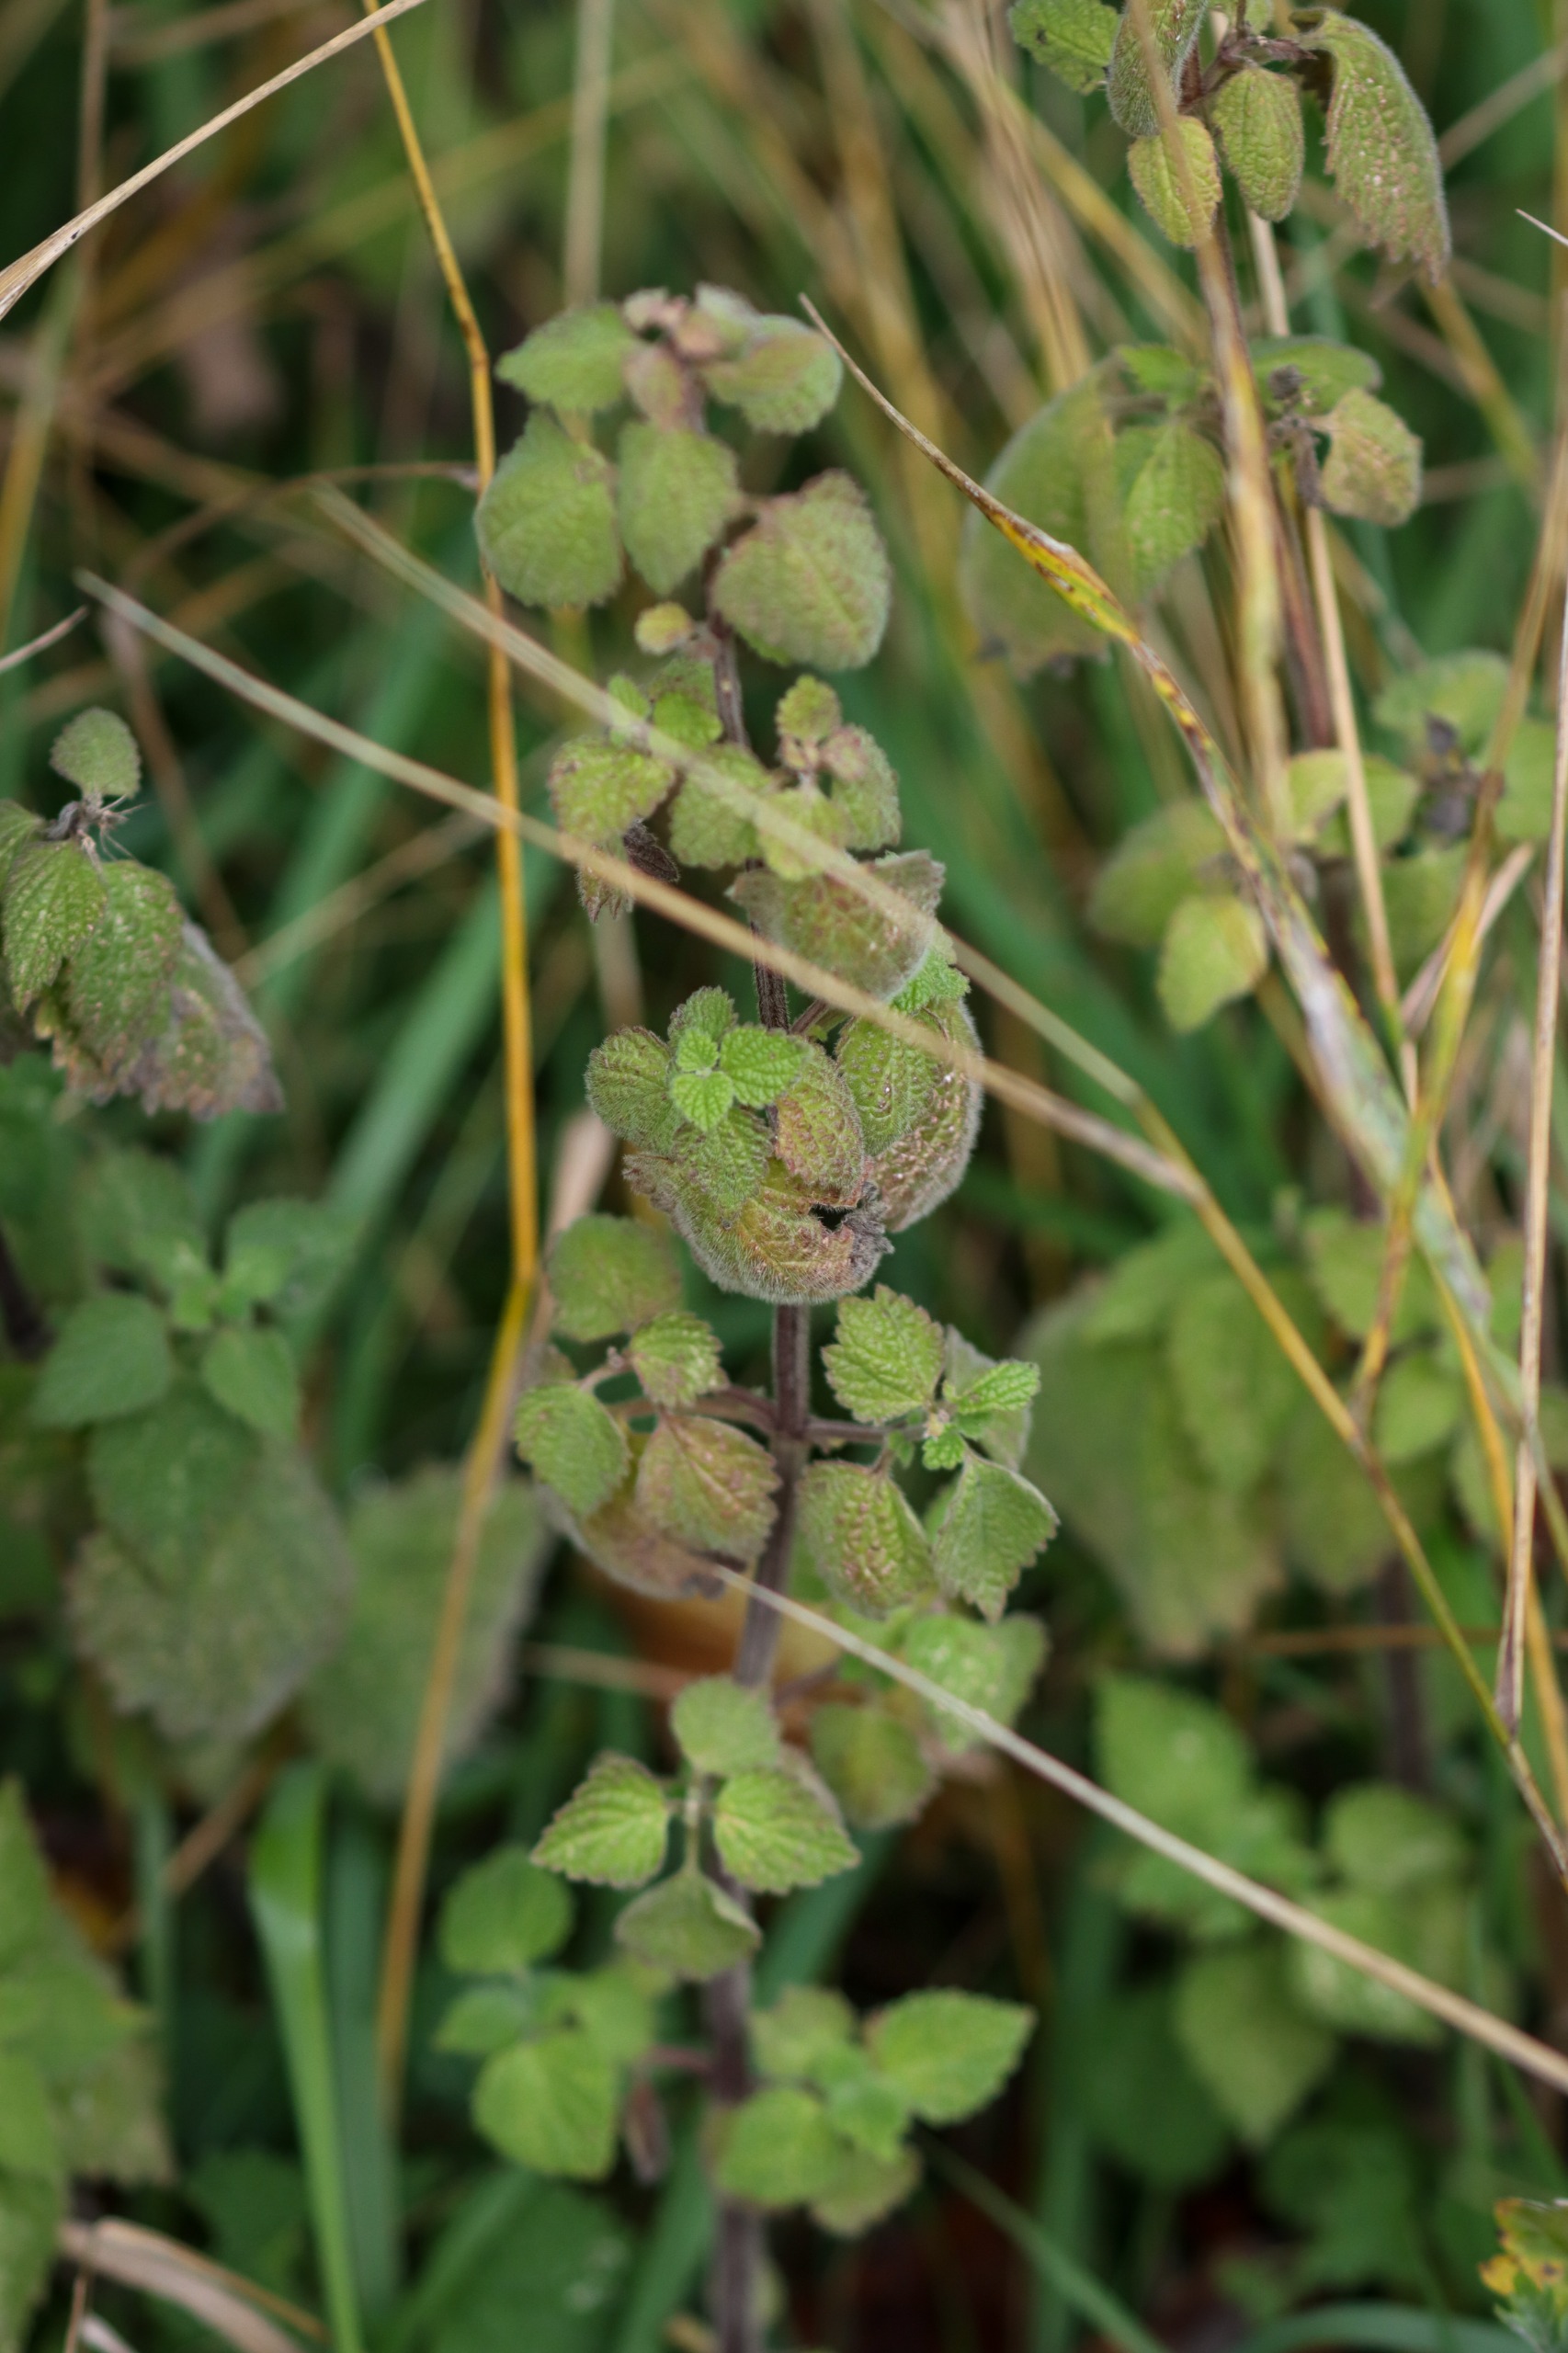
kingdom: Plantae
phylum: Tracheophyta
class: Magnoliopsida
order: Lamiales
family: Lamiaceae
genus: Ballota
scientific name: Ballota nigra
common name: Tandbæger
